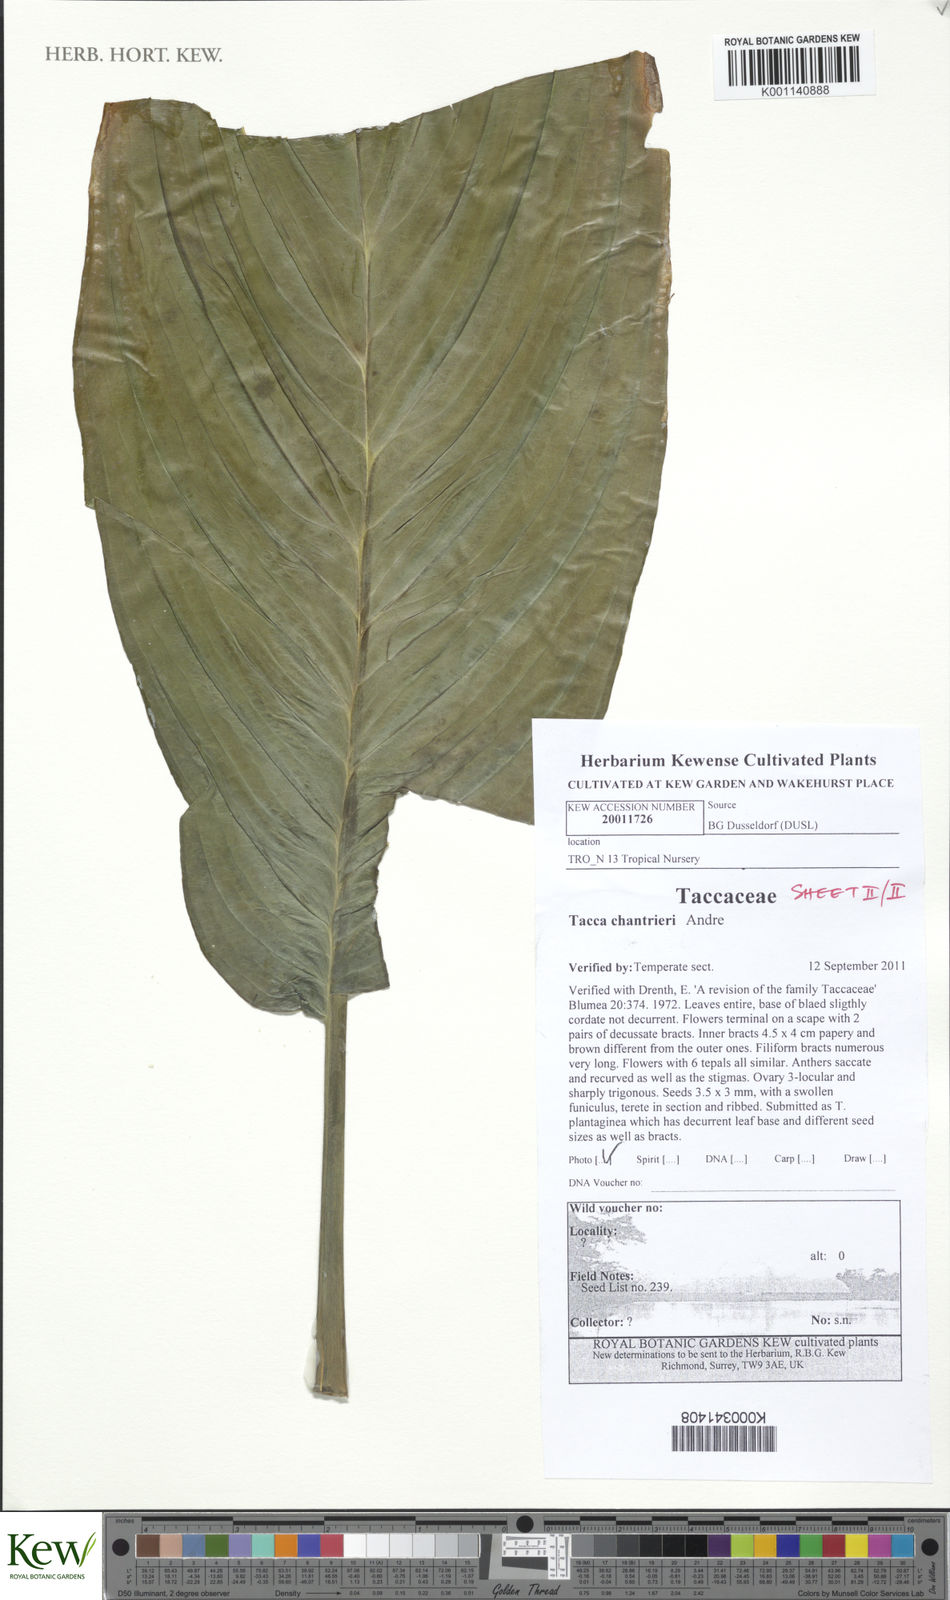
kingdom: Plantae
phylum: Tracheophyta
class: Liliopsida
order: Dioscoreales
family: Dioscoreaceae
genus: Tacca
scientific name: Tacca
